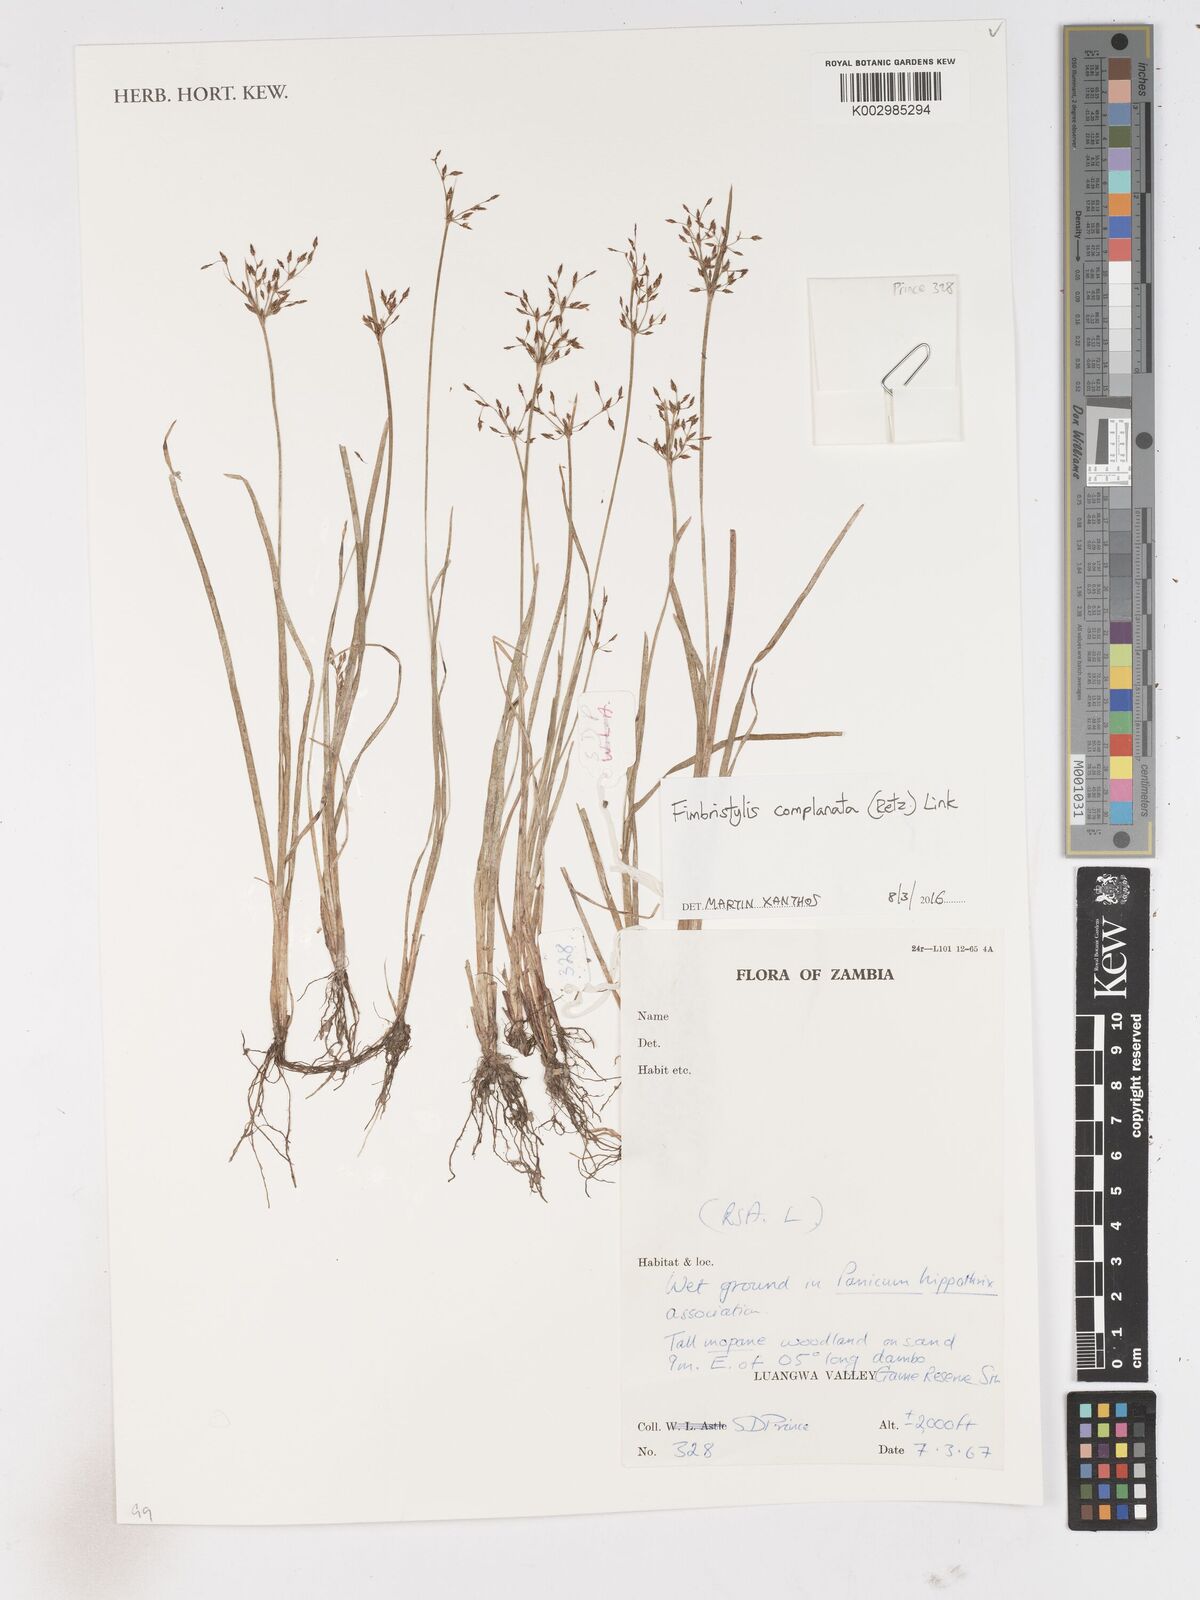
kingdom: Plantae
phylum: Tracheophyta
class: Liliopsida
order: Poales
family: Cyperaceae
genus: Fimbristylis
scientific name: Fimbristylis complanata
